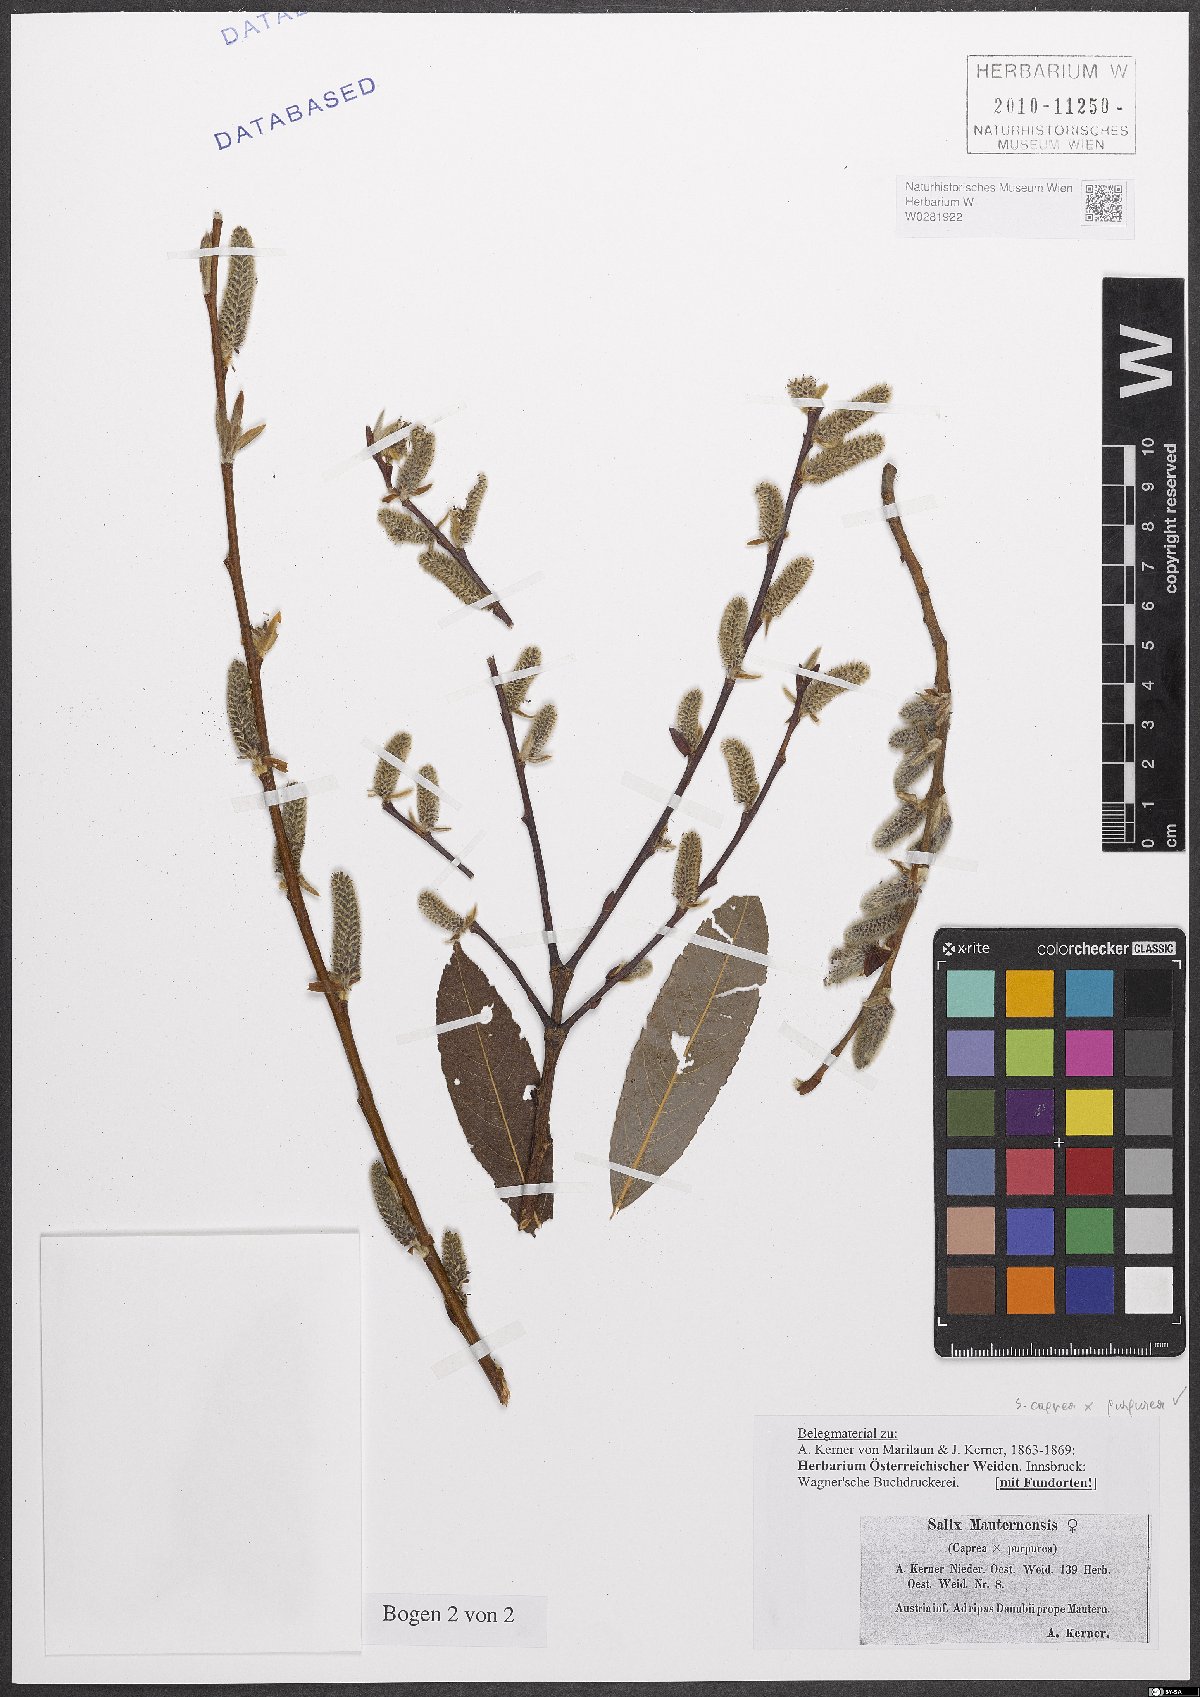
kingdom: Plantae
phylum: Tracheophyta
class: Magnoliopsida
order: Malpighiales
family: Salicaceae
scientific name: Salicaceae
